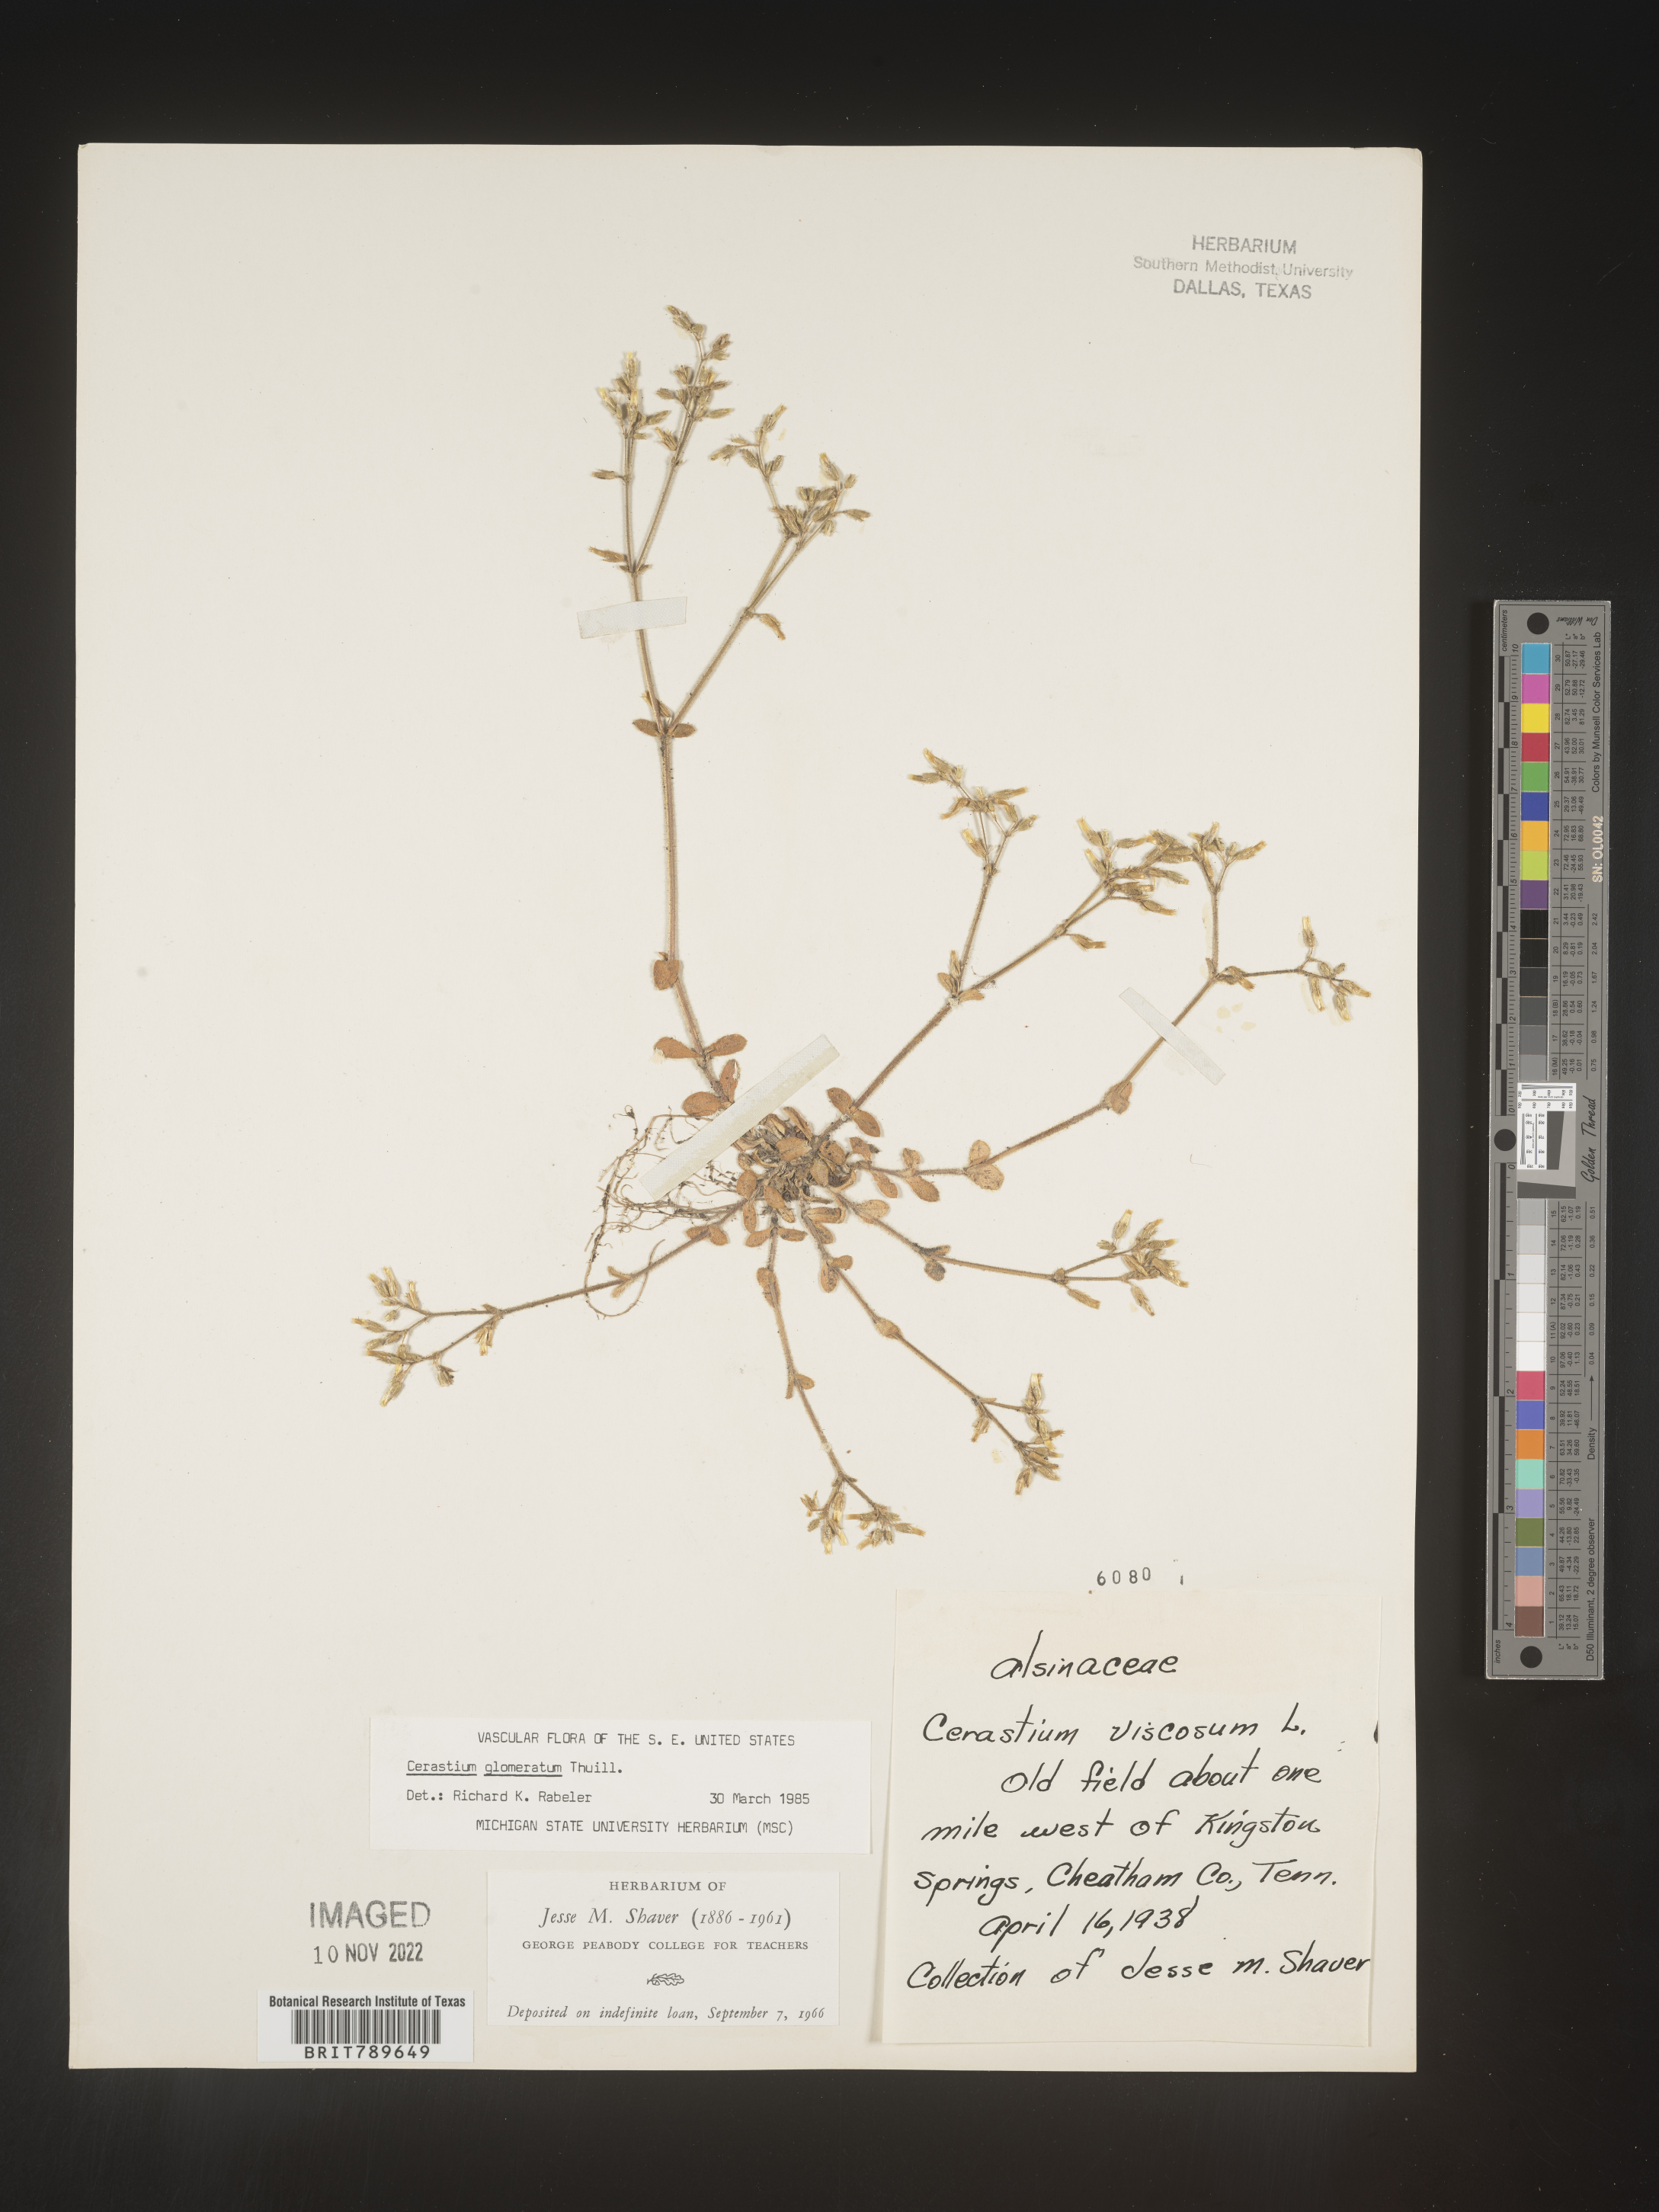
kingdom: Plantae
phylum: Tracheophyta
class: Magnoliopsida
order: Caryophyllales
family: Caryophyllaceae
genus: Cerastium
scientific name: Cerastium glomeratum
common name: Sticky chickweed
